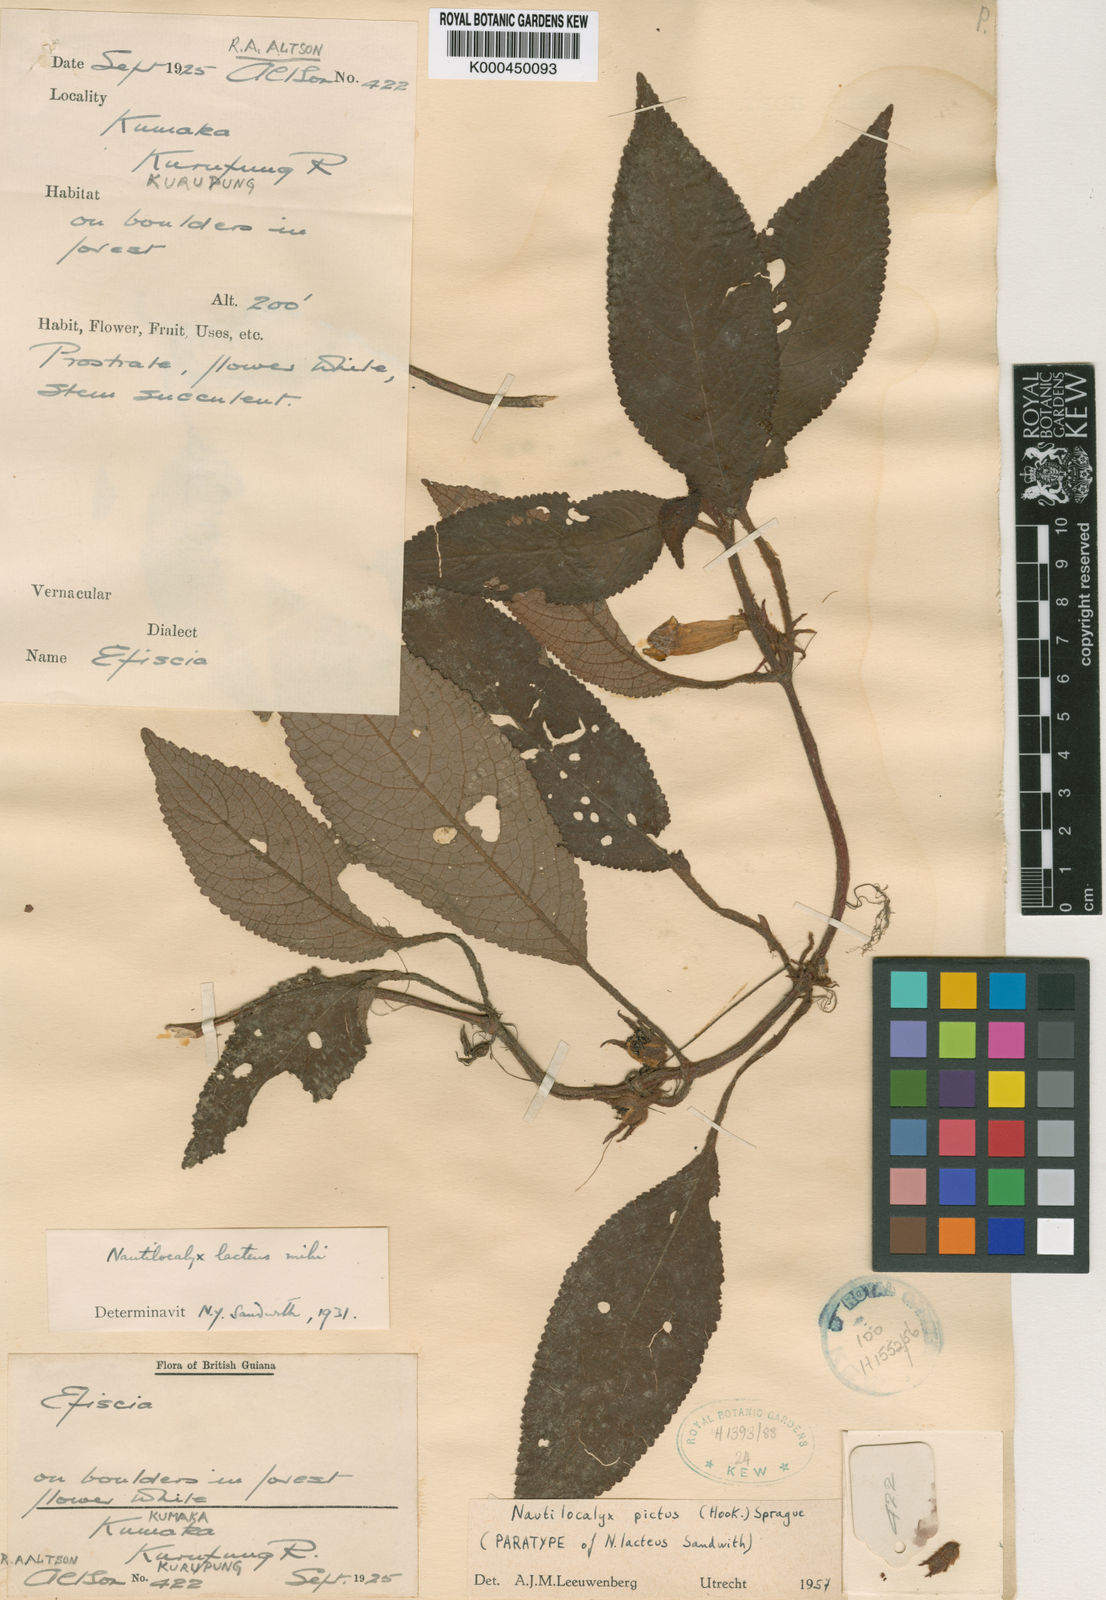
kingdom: Plantae
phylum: Tracheophyta
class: Magnoliopsida
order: Lamiales
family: Gesneriaceae
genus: Centrosolenia
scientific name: Centrosolenia picta
